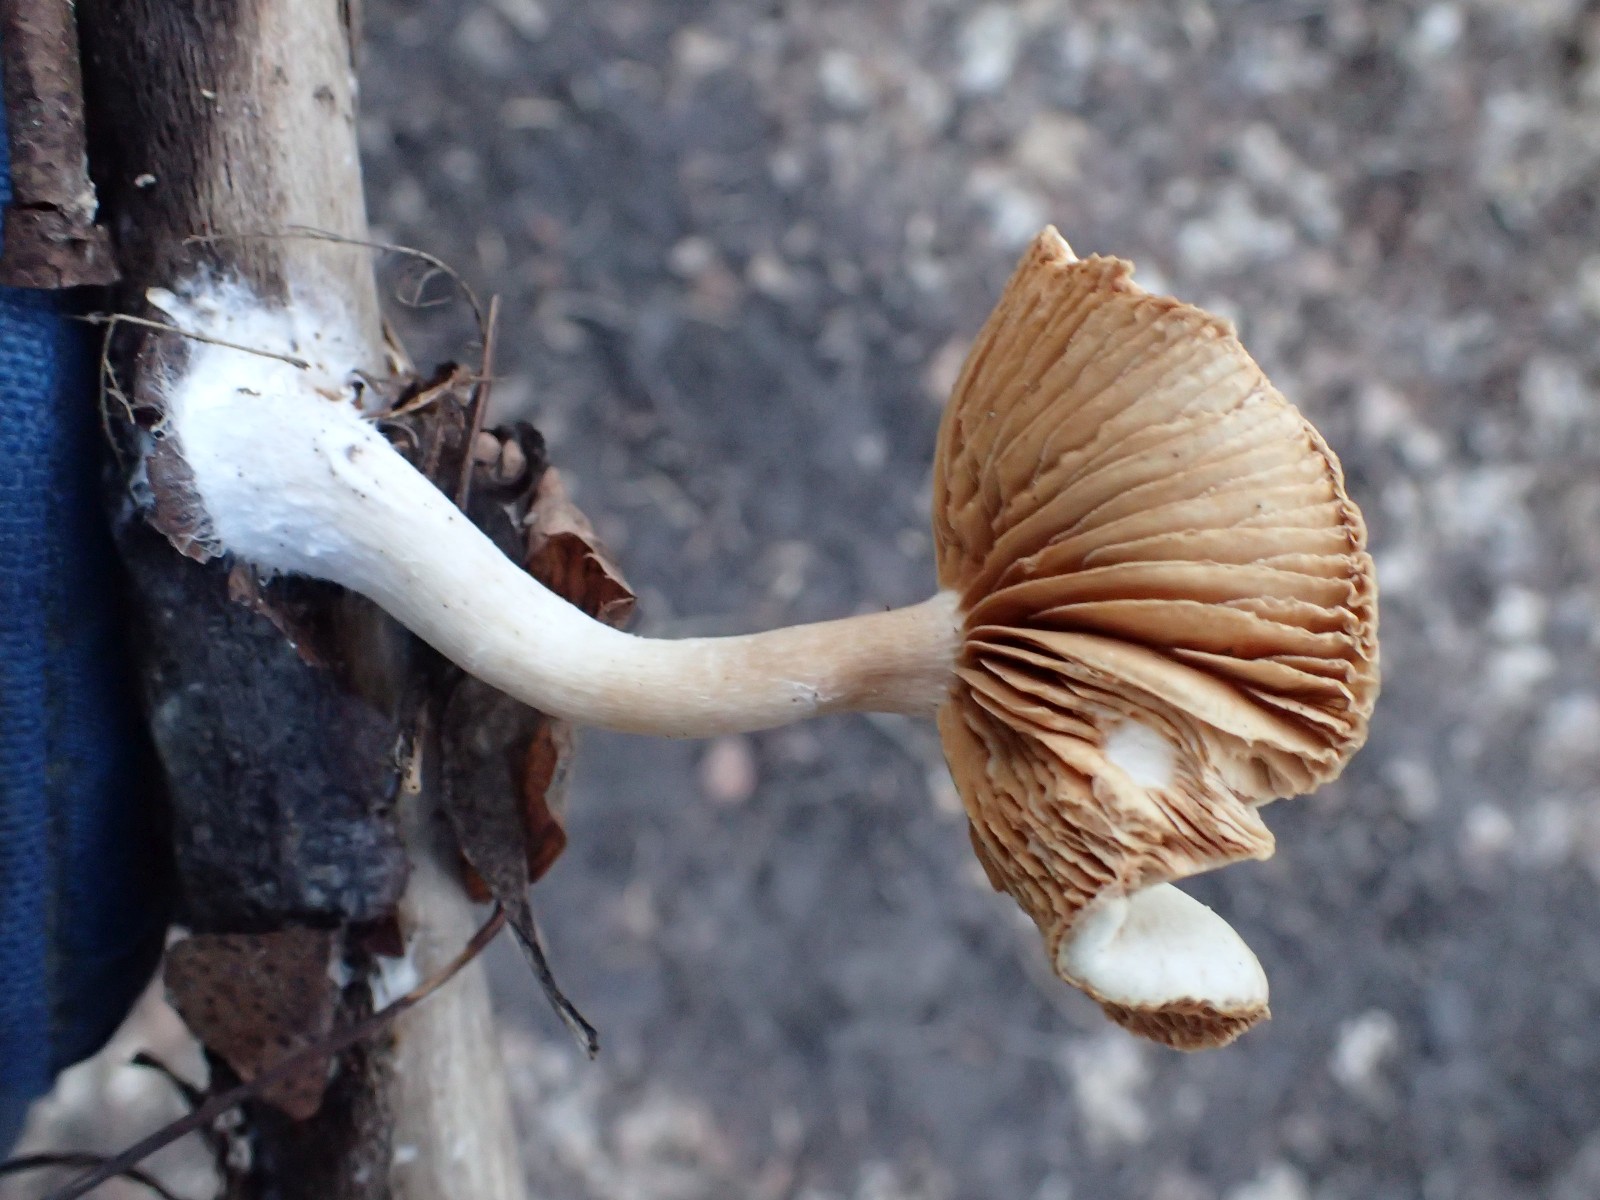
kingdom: Fungi
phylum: Basidiomycota
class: Agaricomycetes
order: Agaricales
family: Tubariaceae
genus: Tubaria
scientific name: Tubaria furfuracea
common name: kliddet fnughat
